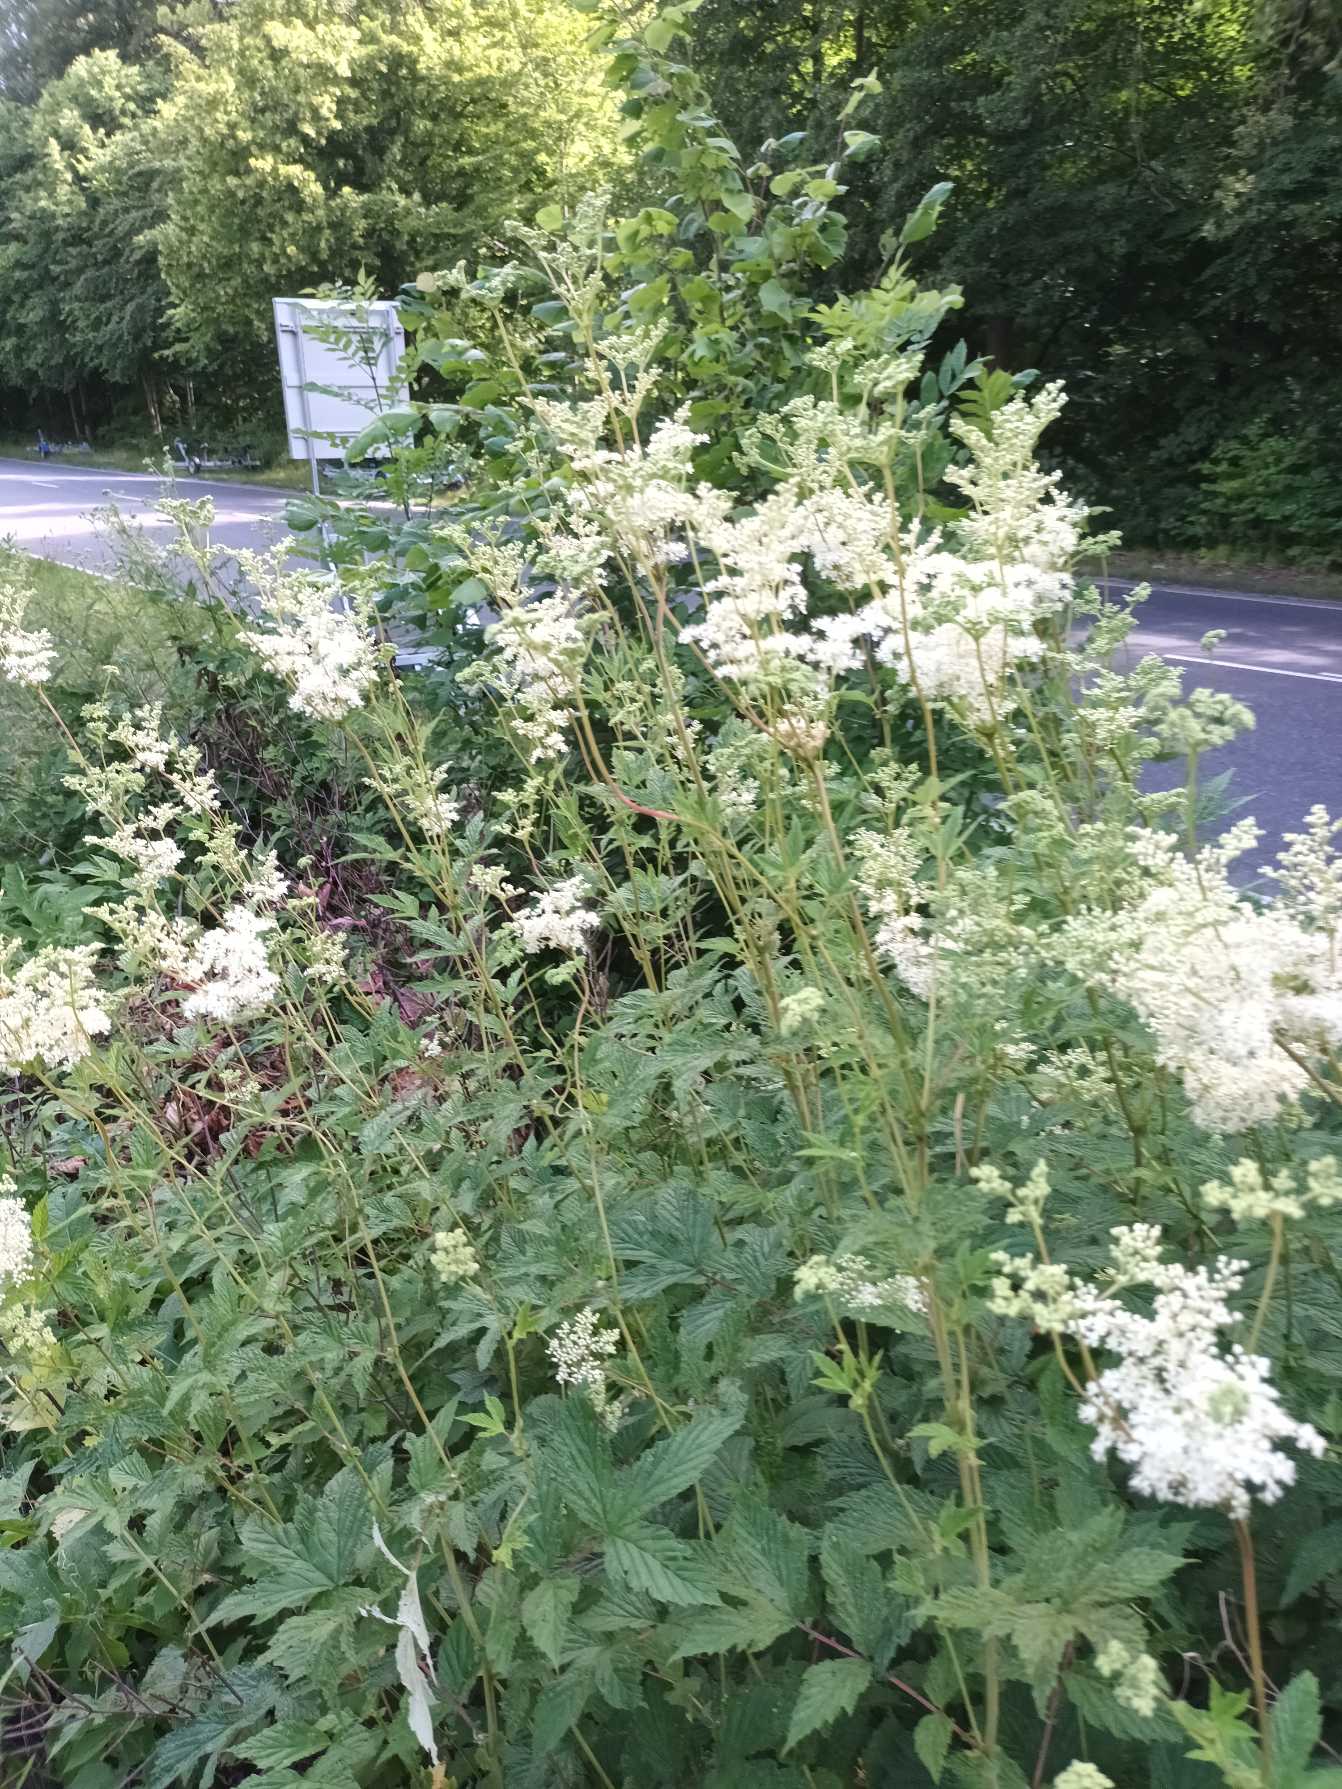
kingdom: Plantae
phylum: Tracheophyta
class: Magnoliopsida
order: Rosales
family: Rosaceae
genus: Filipendula
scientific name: Filipendula ulmaria
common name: Almindelig mjødurt
